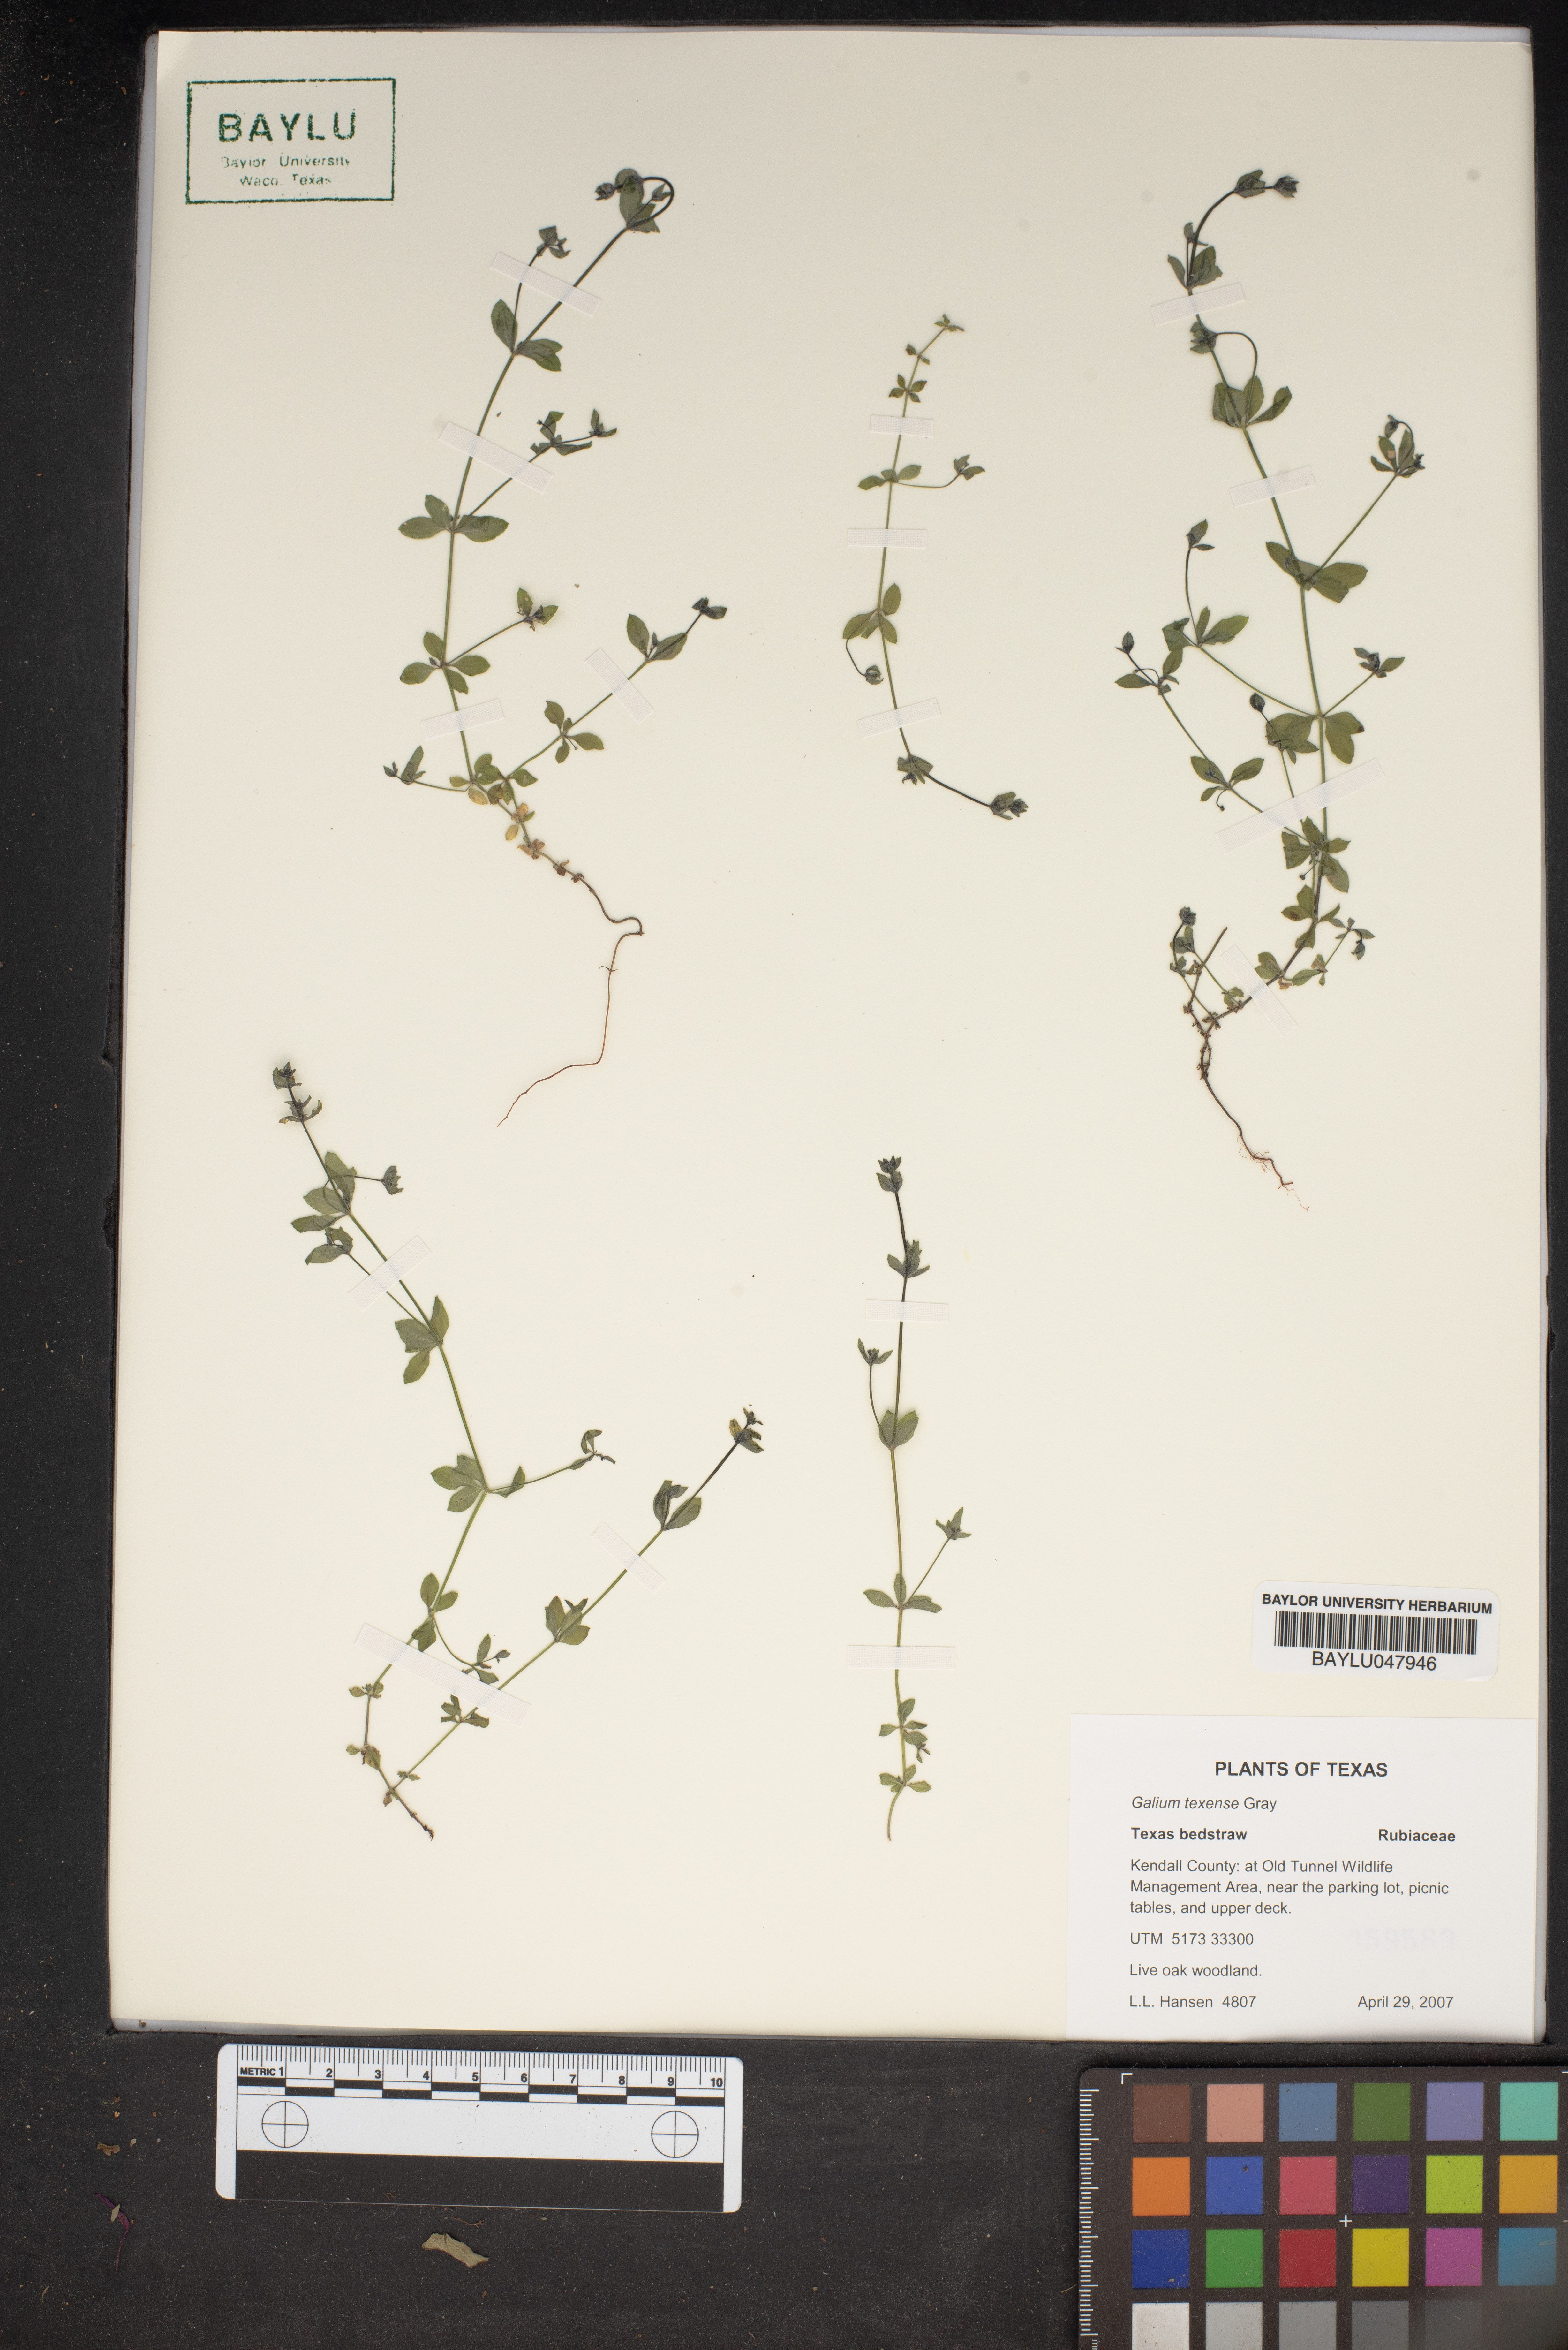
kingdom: Plantae
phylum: Tracheophyta
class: Magnoliopsida
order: Gentianales
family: Rubiaceae
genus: Galium
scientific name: Galium texense
